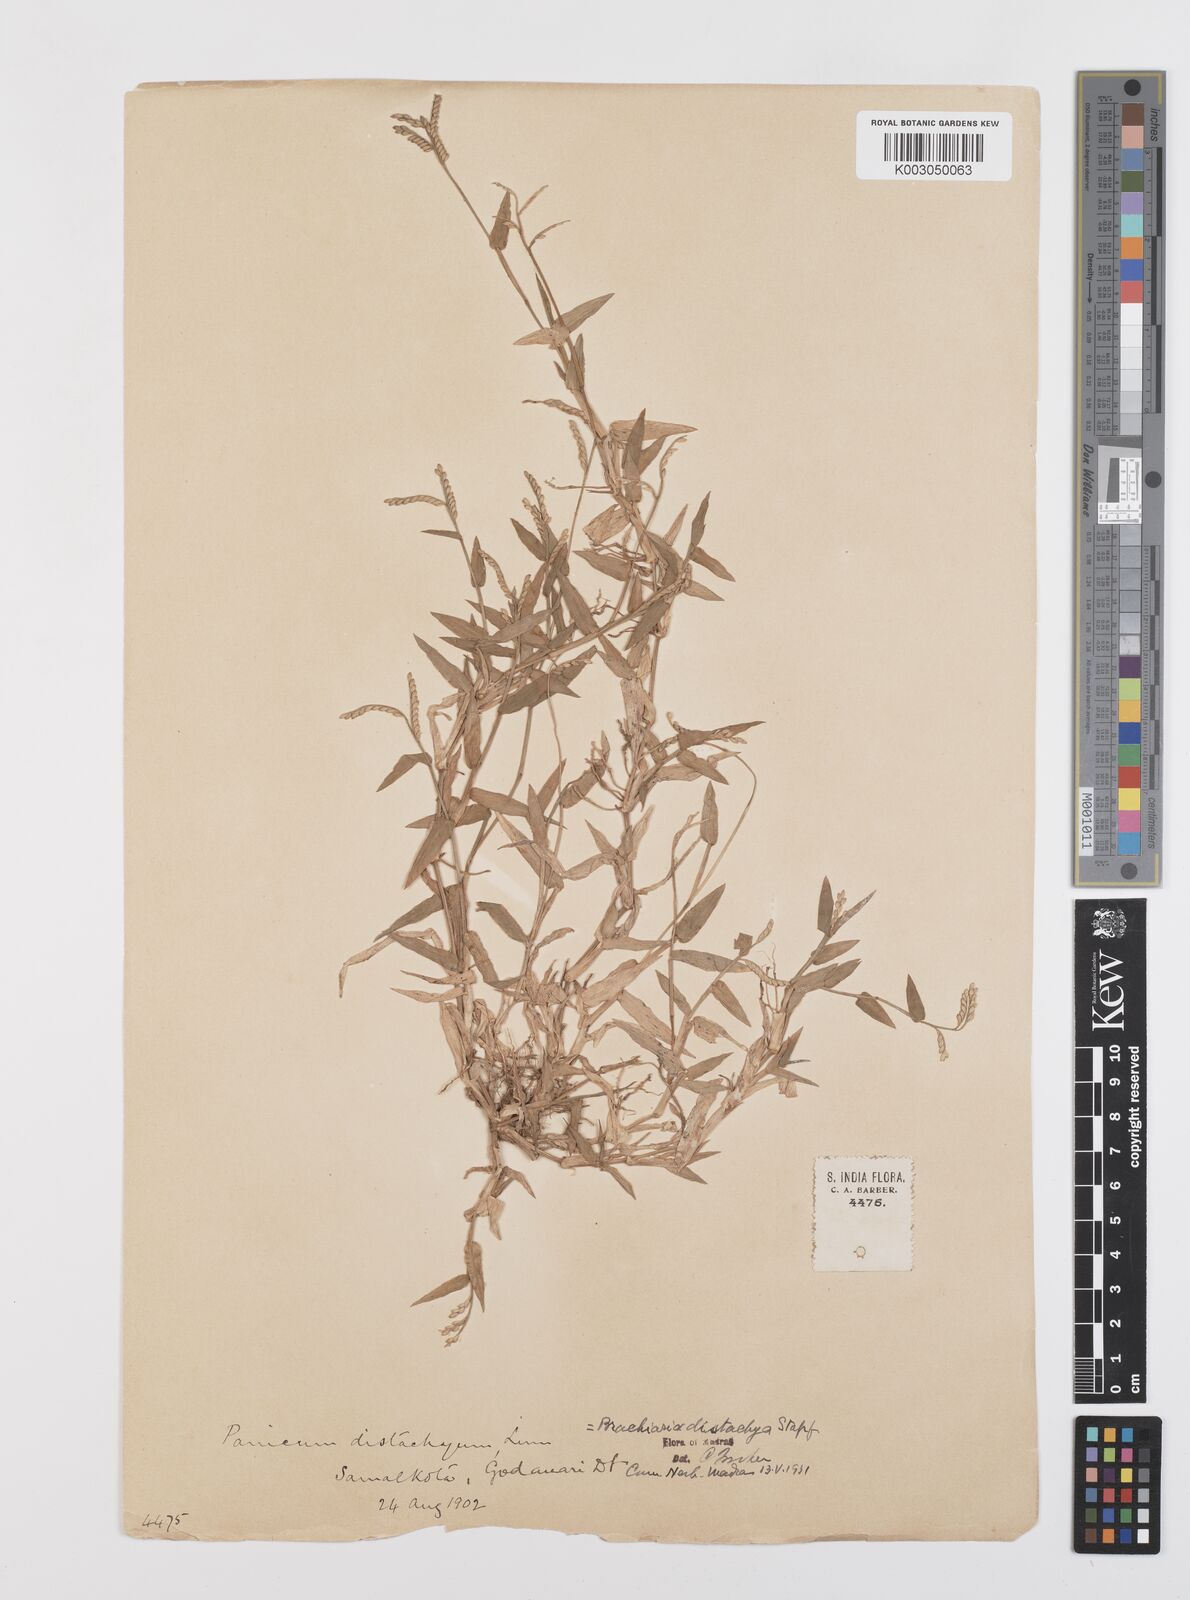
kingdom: Plantae
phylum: Tracheophyta
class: Liliopsida
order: Poales
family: Poaceae
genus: Urochloa
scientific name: Urochloa distachyos
